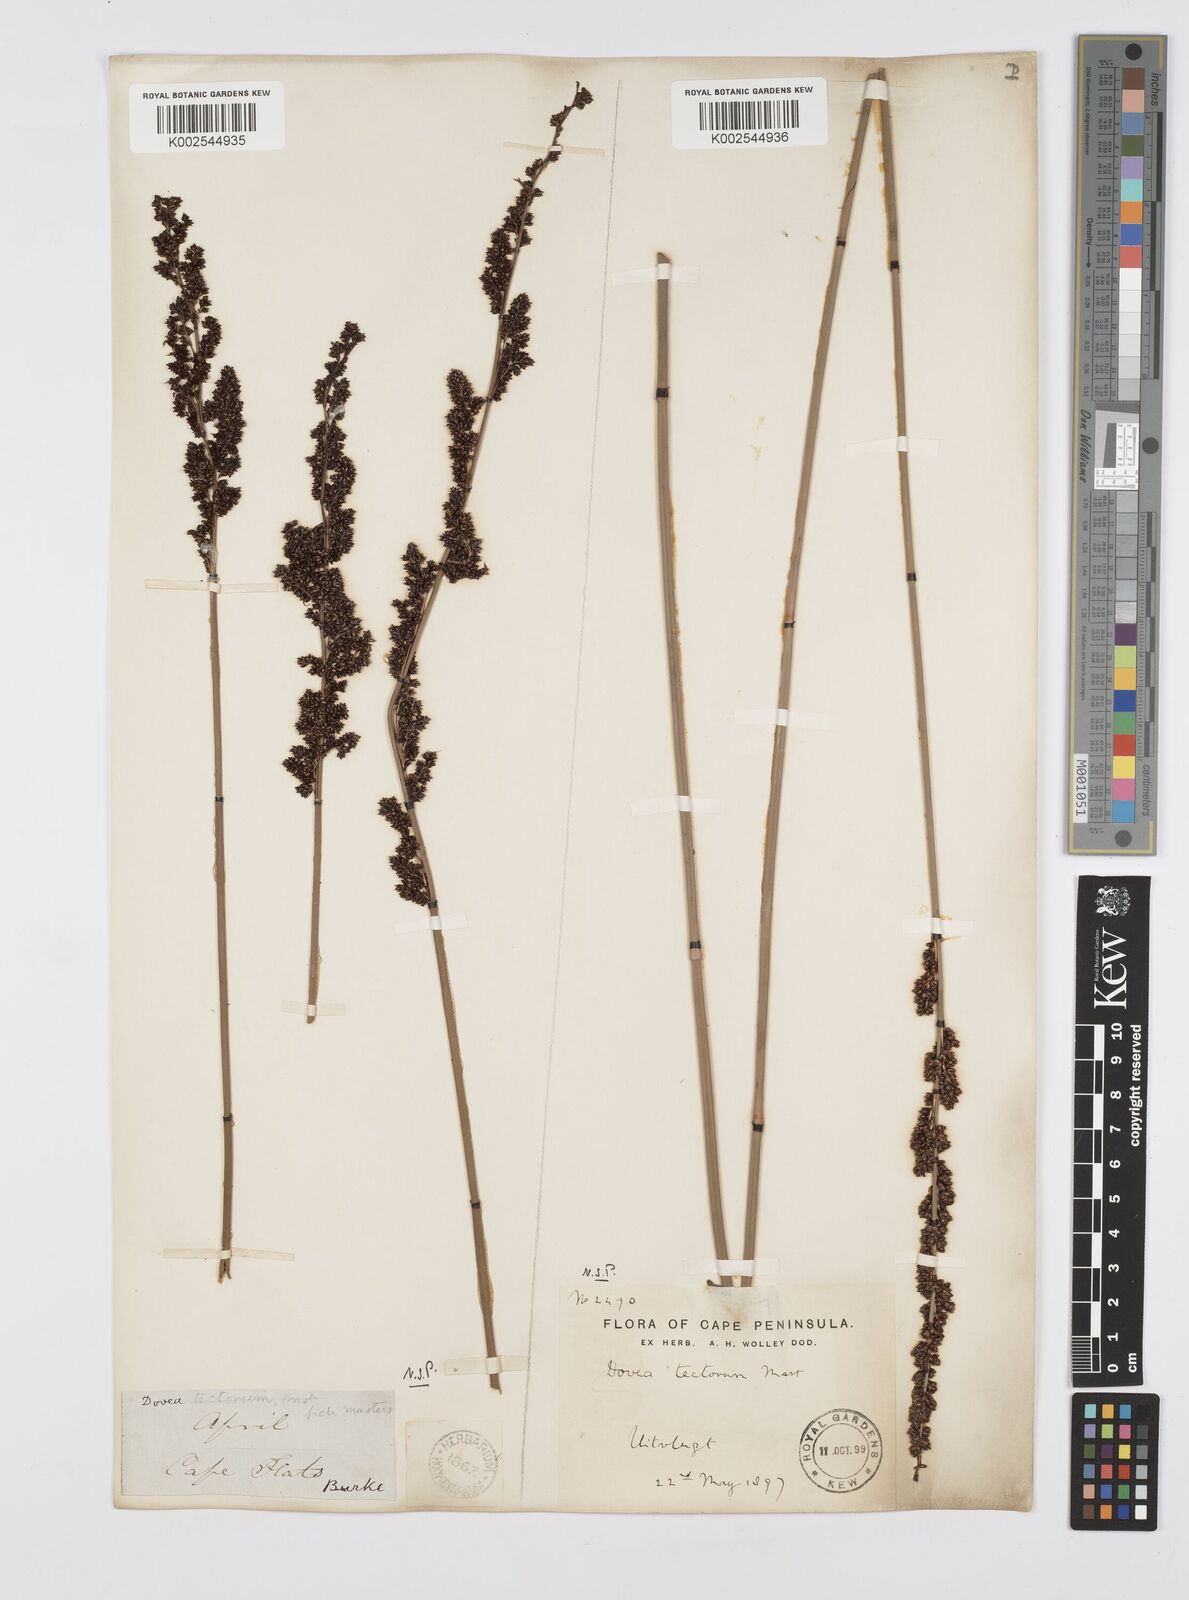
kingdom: Plantae
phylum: Tracheophyta
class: Liliopsida
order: Poales
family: Restionaceae
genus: Elegia
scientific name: Elegia tectorum
